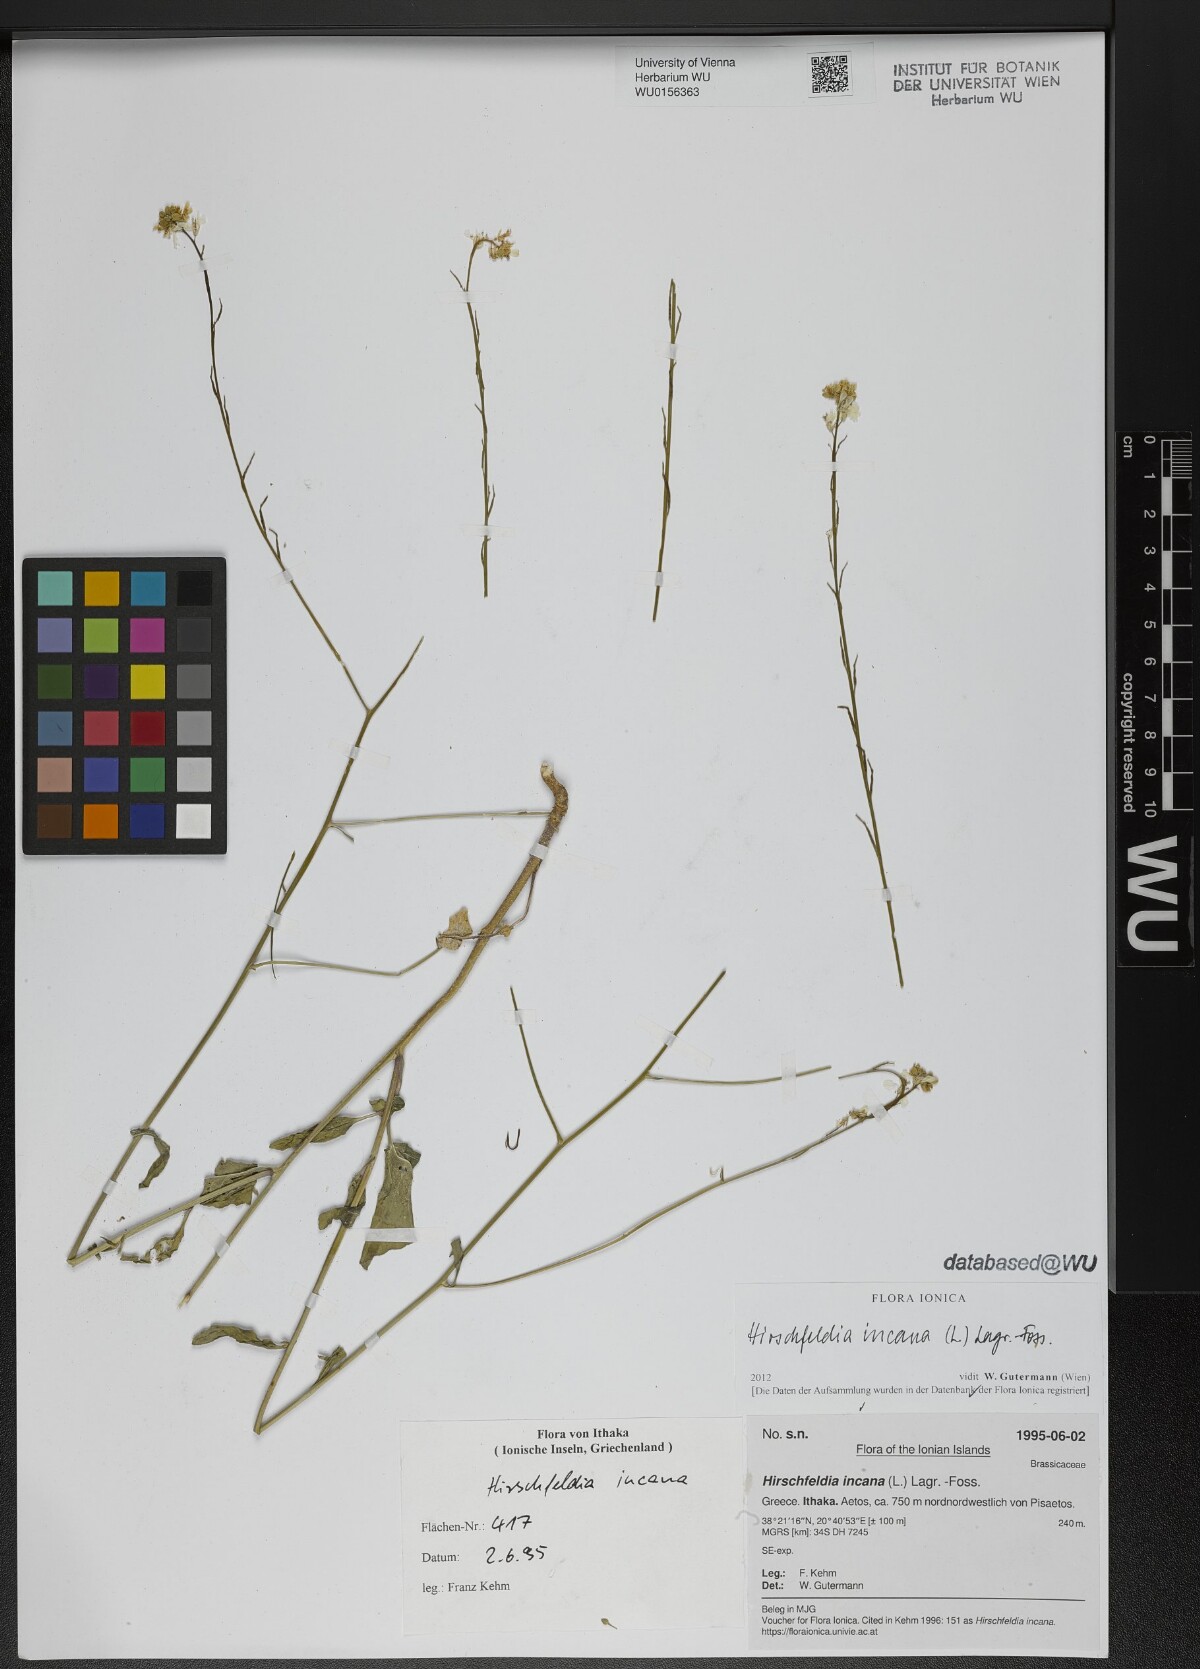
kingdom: Plantae
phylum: Tracheophyta
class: Magnoliopsida
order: Brassicales
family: Brassicaceae
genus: Hirschfeldia
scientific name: Hirschfeldia incana
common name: Hoary mustard
